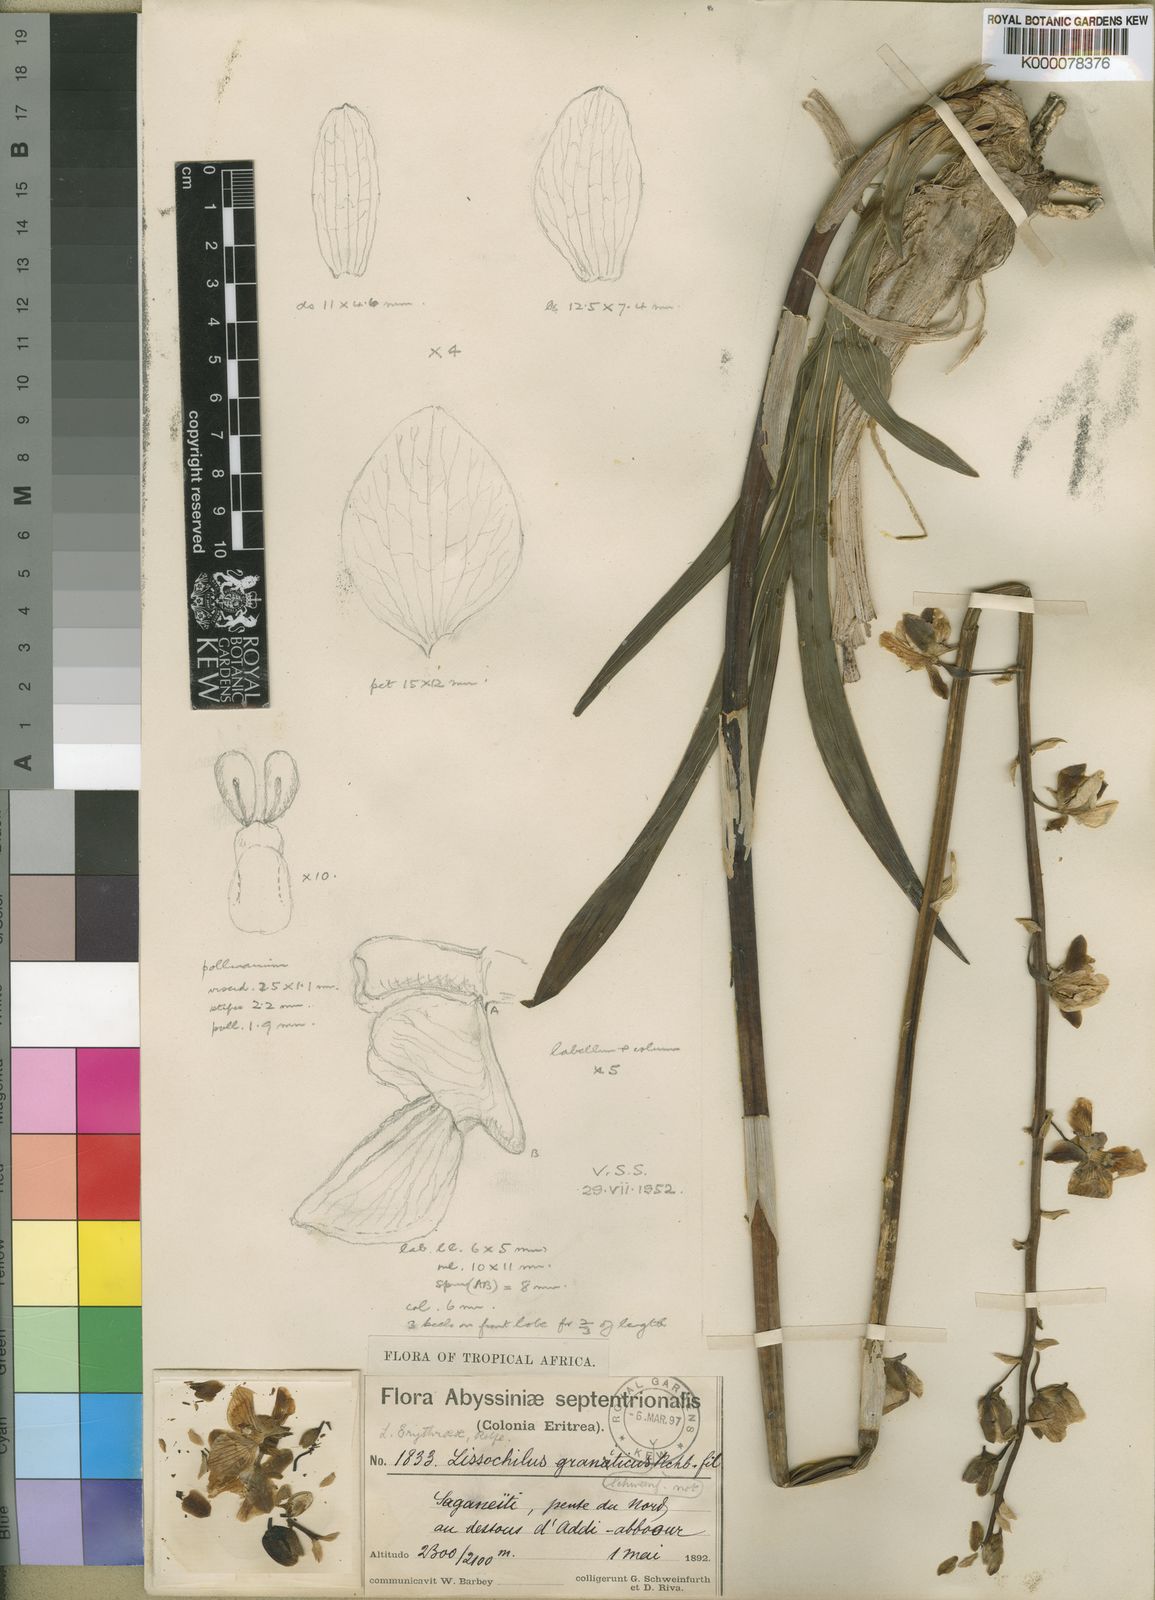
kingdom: Plantae
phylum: Tracheophyta
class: Liliopsida
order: Asparagales
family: Orchidaceae
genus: Eulophia
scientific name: Eulophia streptopetala
